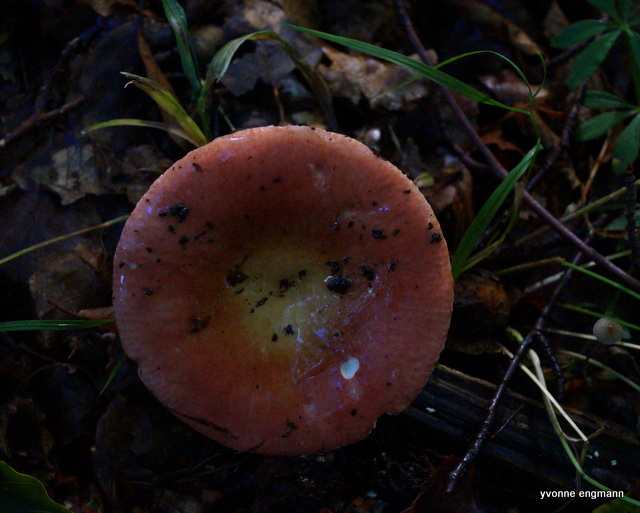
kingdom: Fungi
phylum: Basidiomycota
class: Agaricomycetes
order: Russulales
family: Russulaceae
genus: Russula
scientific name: Russula
